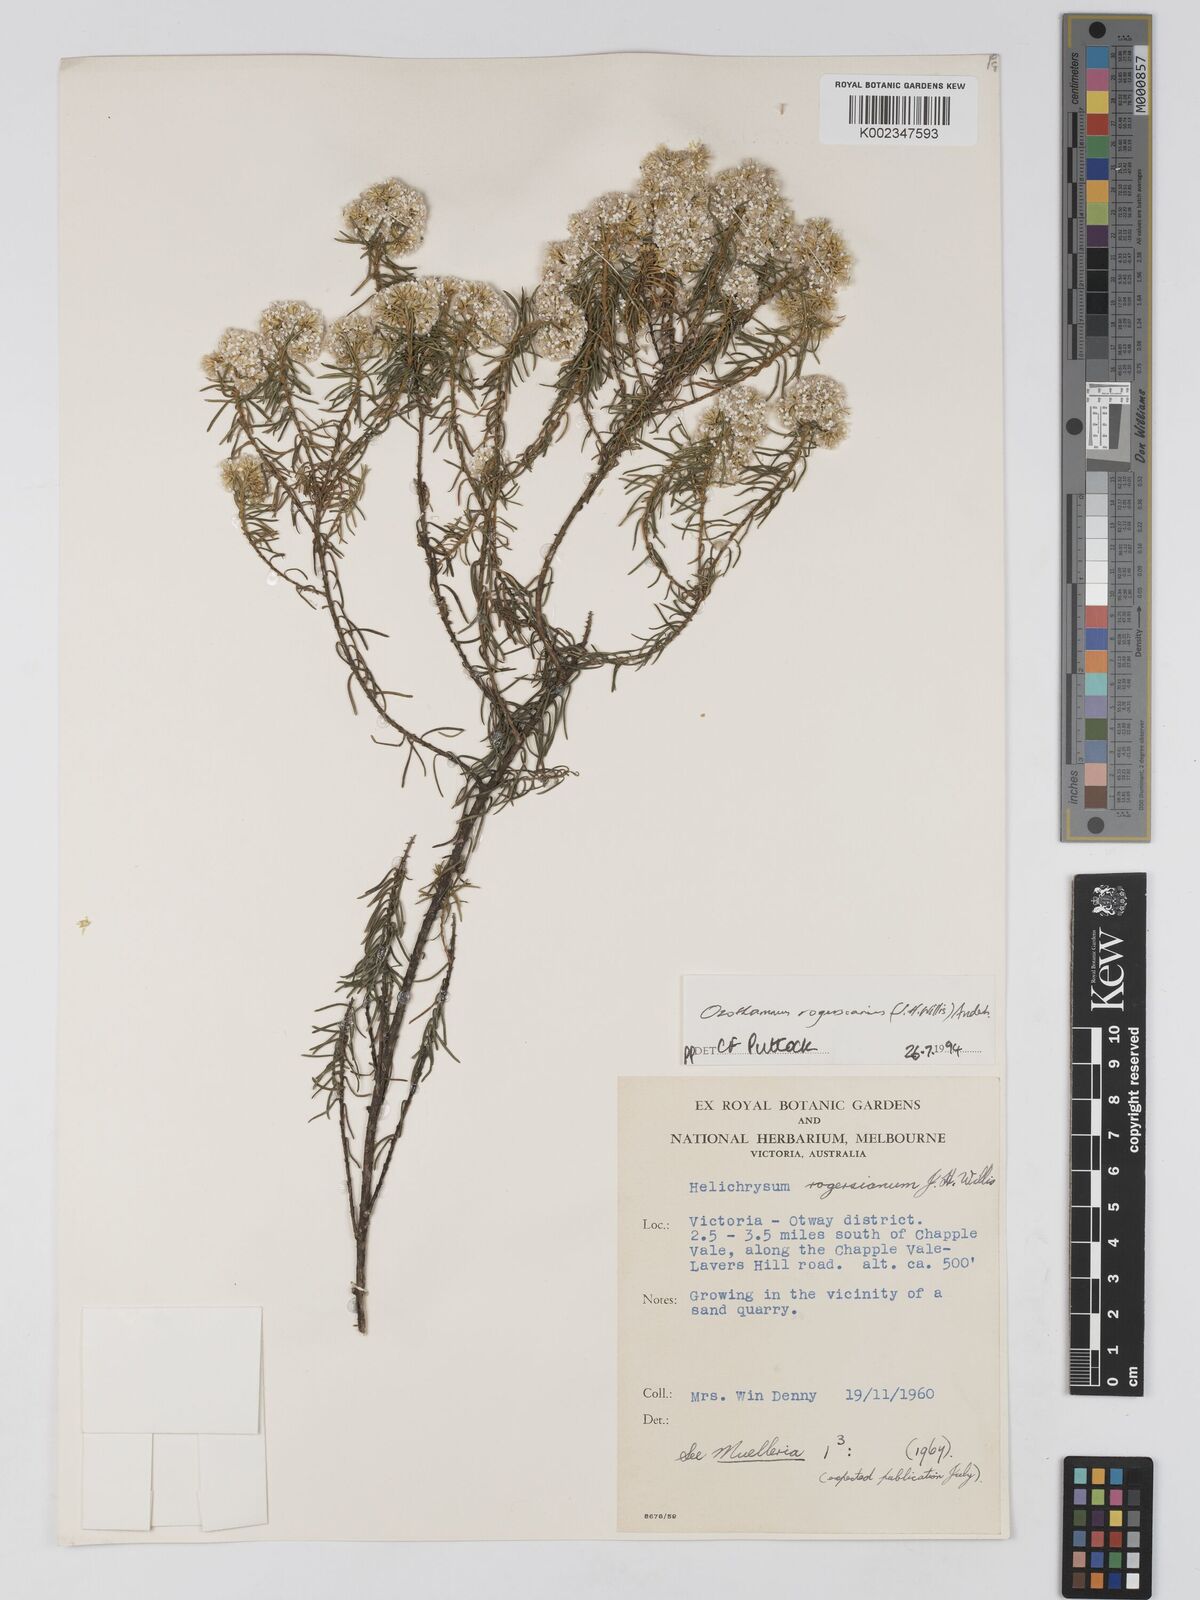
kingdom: Plantae
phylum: Tracheophyta
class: Magnoliopsida
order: Asterales
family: Asteraceae
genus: Ozothamnus
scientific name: Ozothamnus rogersianus
